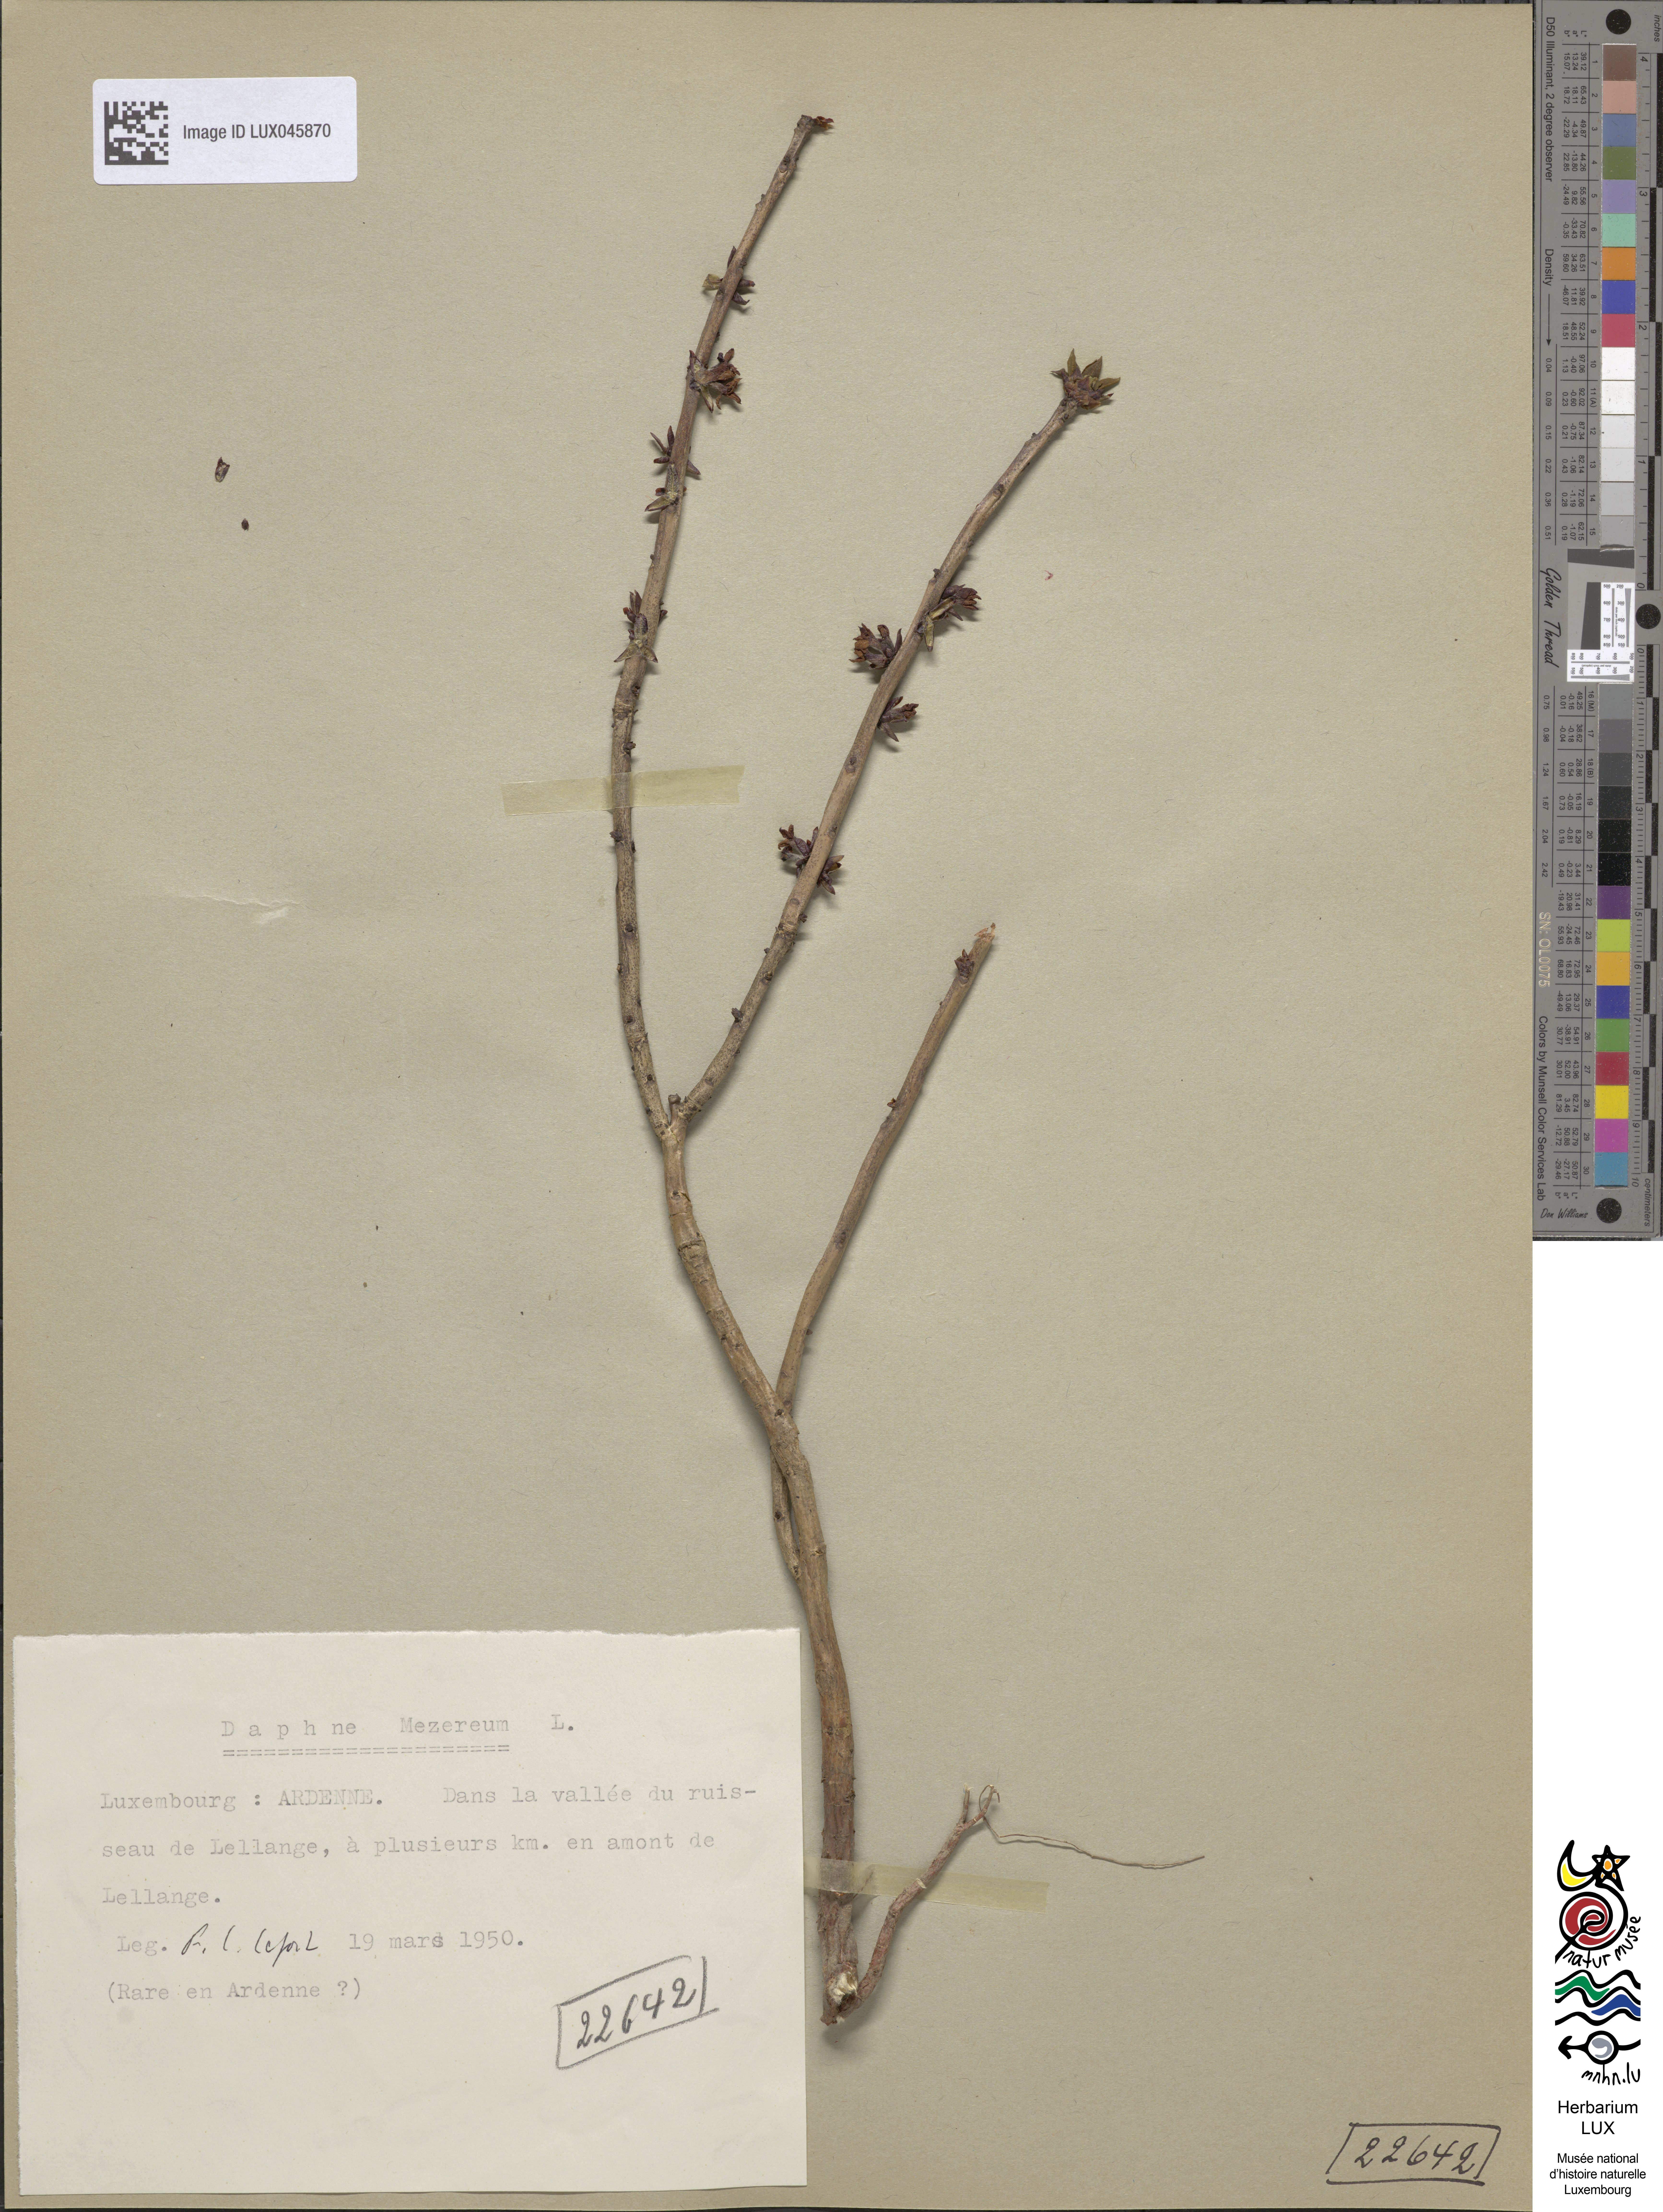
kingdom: Plantae
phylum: Tracheophyta
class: Magnoliopsida
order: Malvales
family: Thymelaeaceae
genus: Daphne
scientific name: Daphne mezereum
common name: Mezereon
